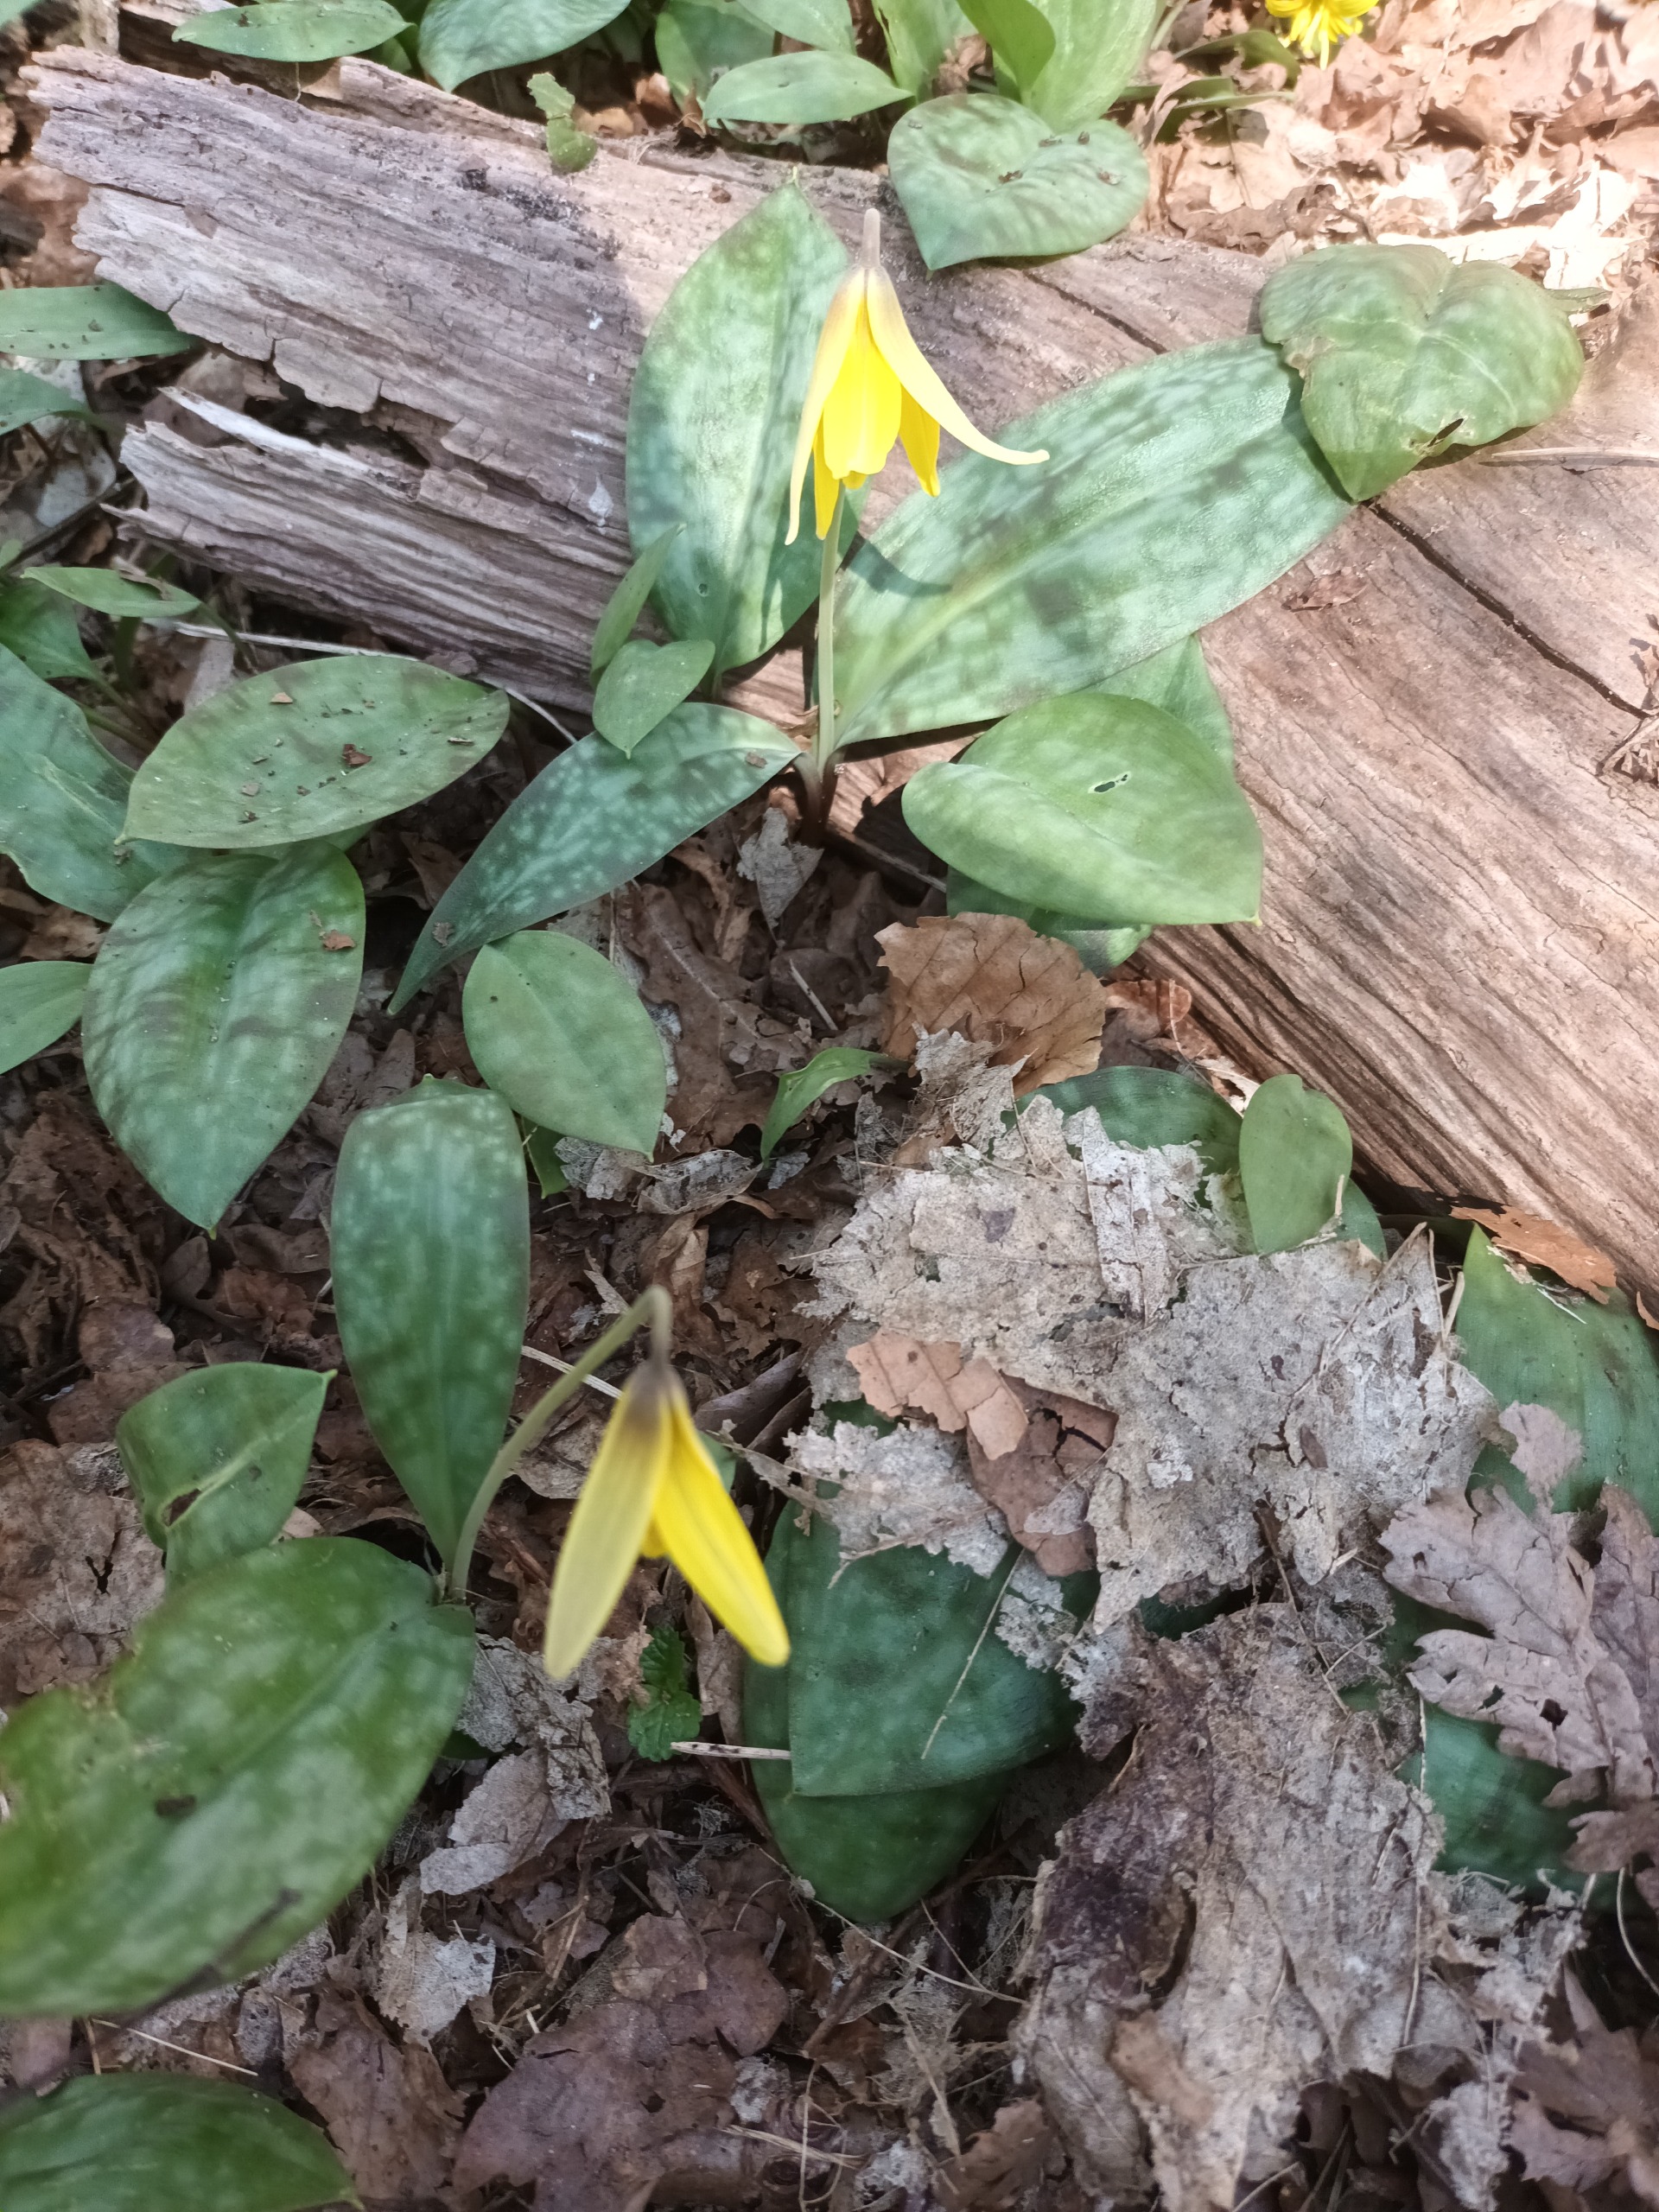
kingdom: Plantae
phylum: Tracheophyta
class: Liliopsida
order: Liliales
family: Liliaceae
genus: Erythronium
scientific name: Erythronium americanum
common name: Gul hundetand
